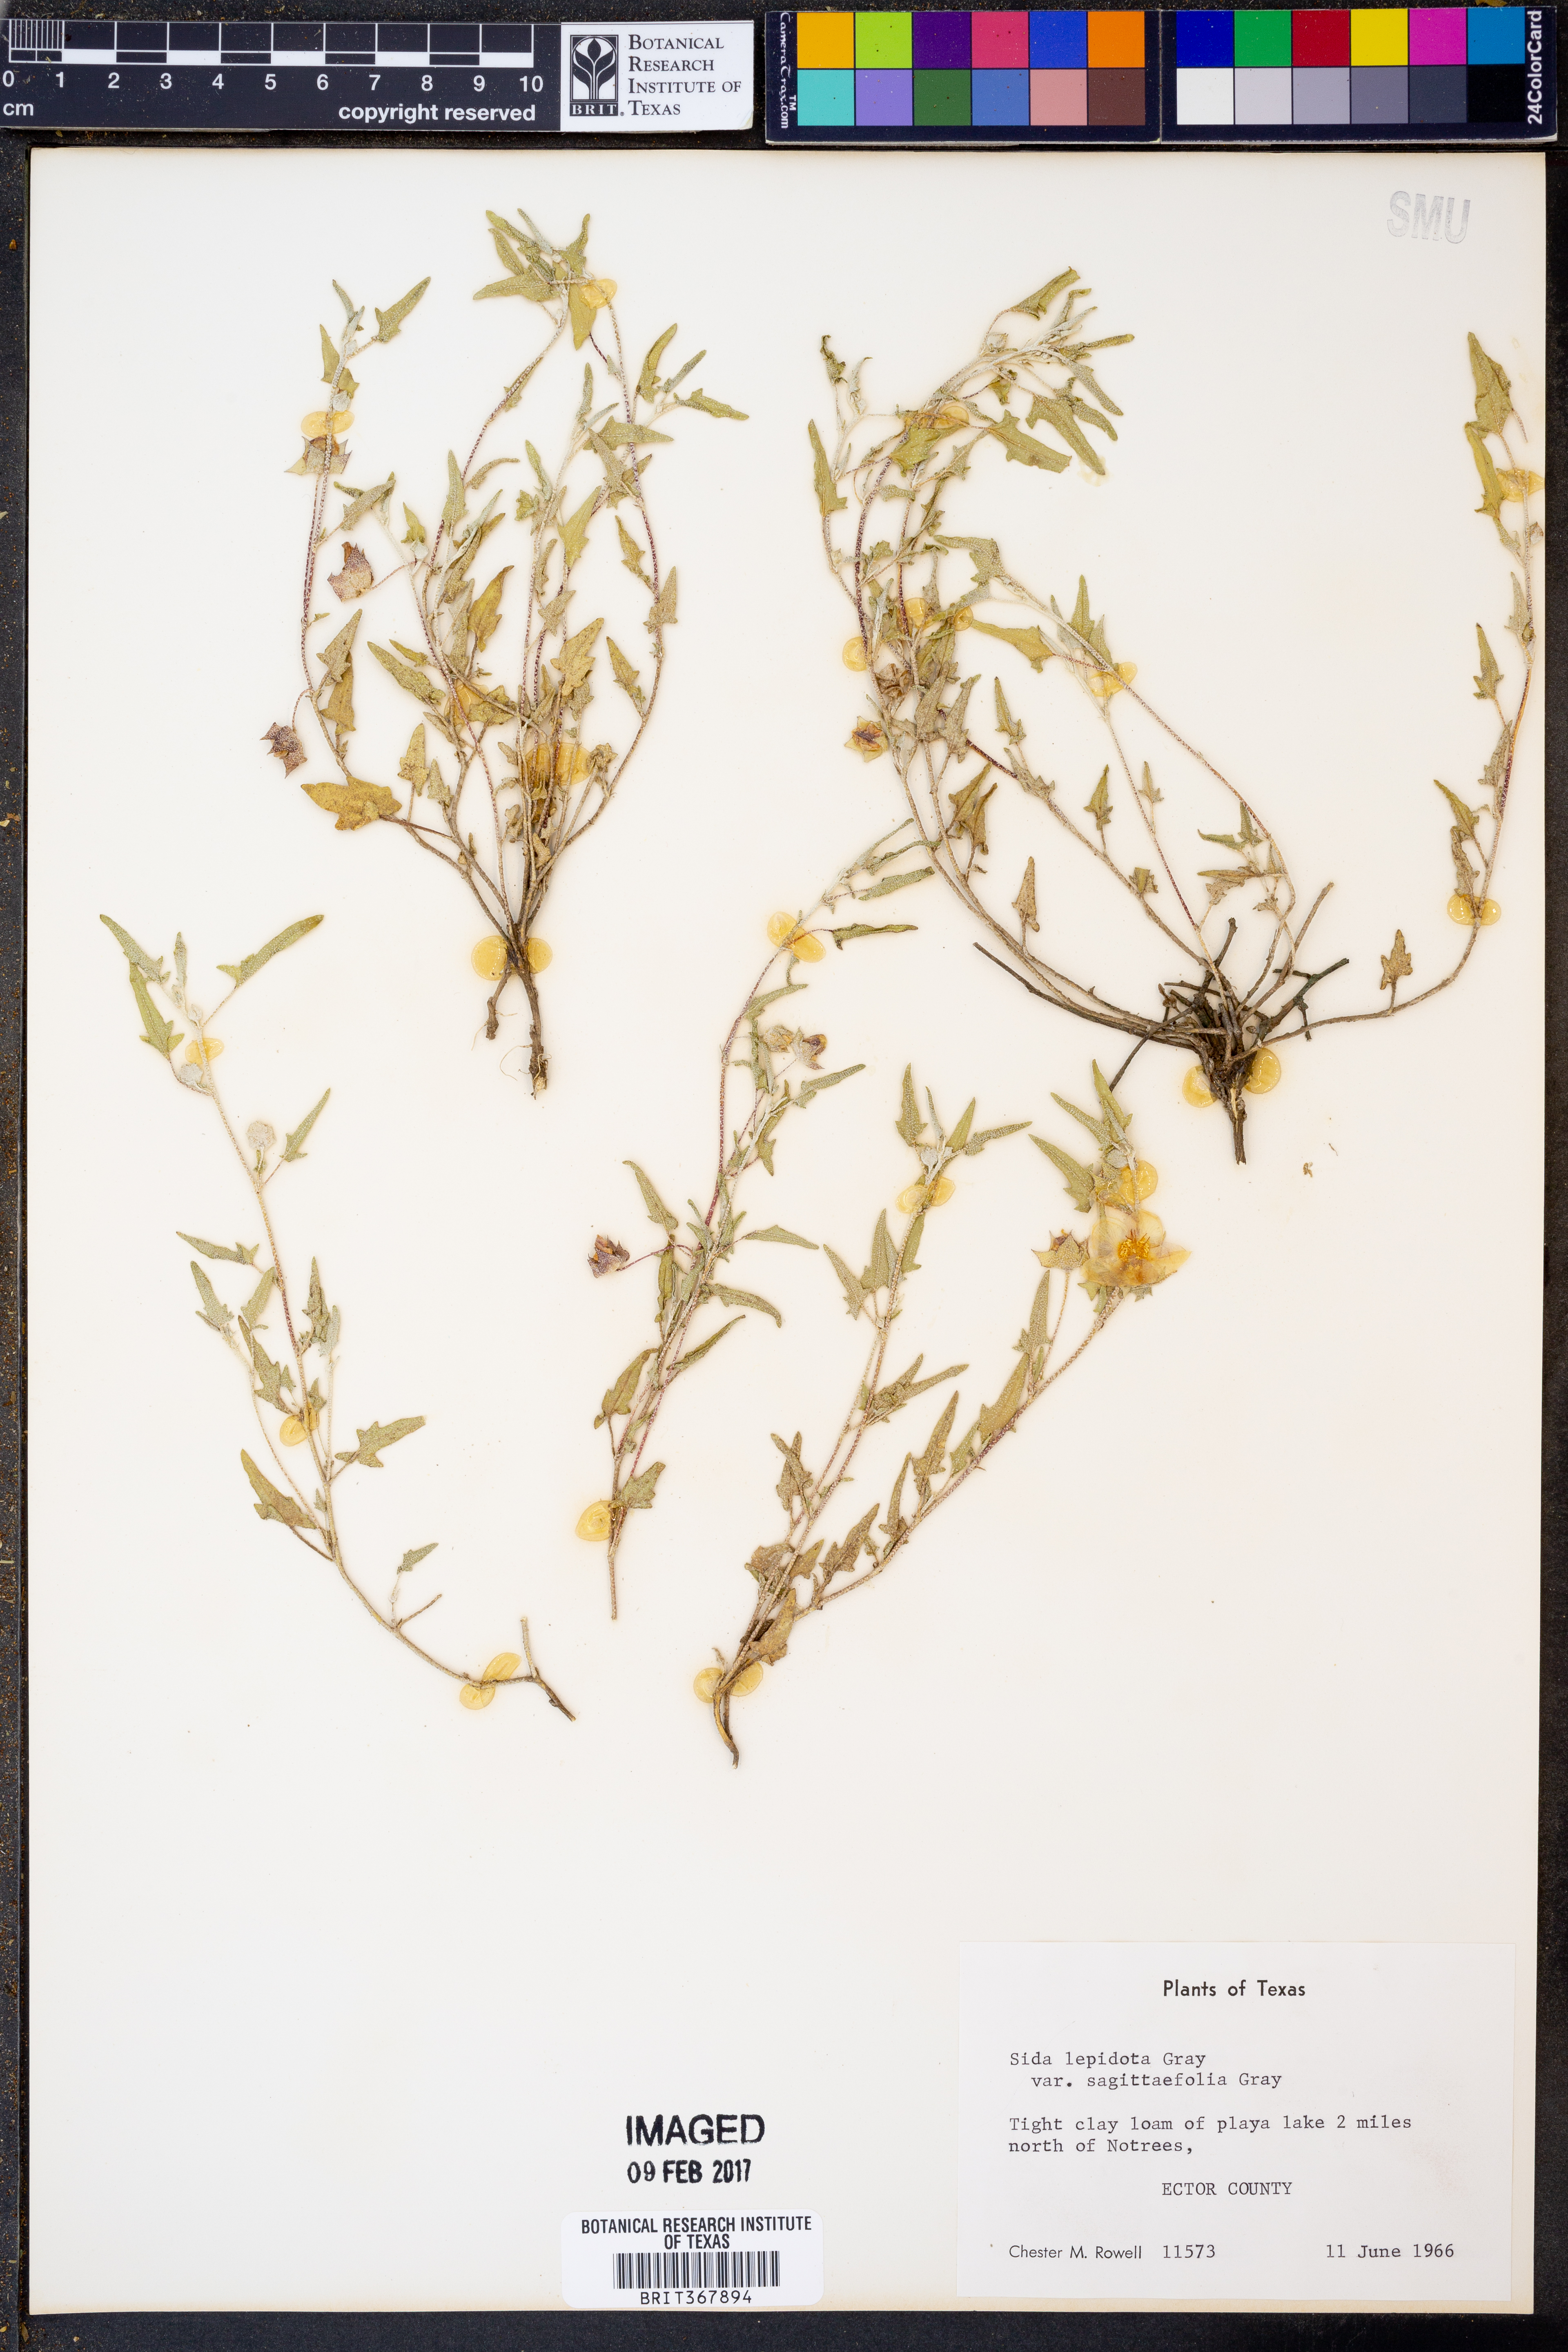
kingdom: Plantae
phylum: Tracheophyta
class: Magnoliopsida
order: Malvales
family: Malvaceae
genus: Malvella
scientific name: Malvella sagittifolia
